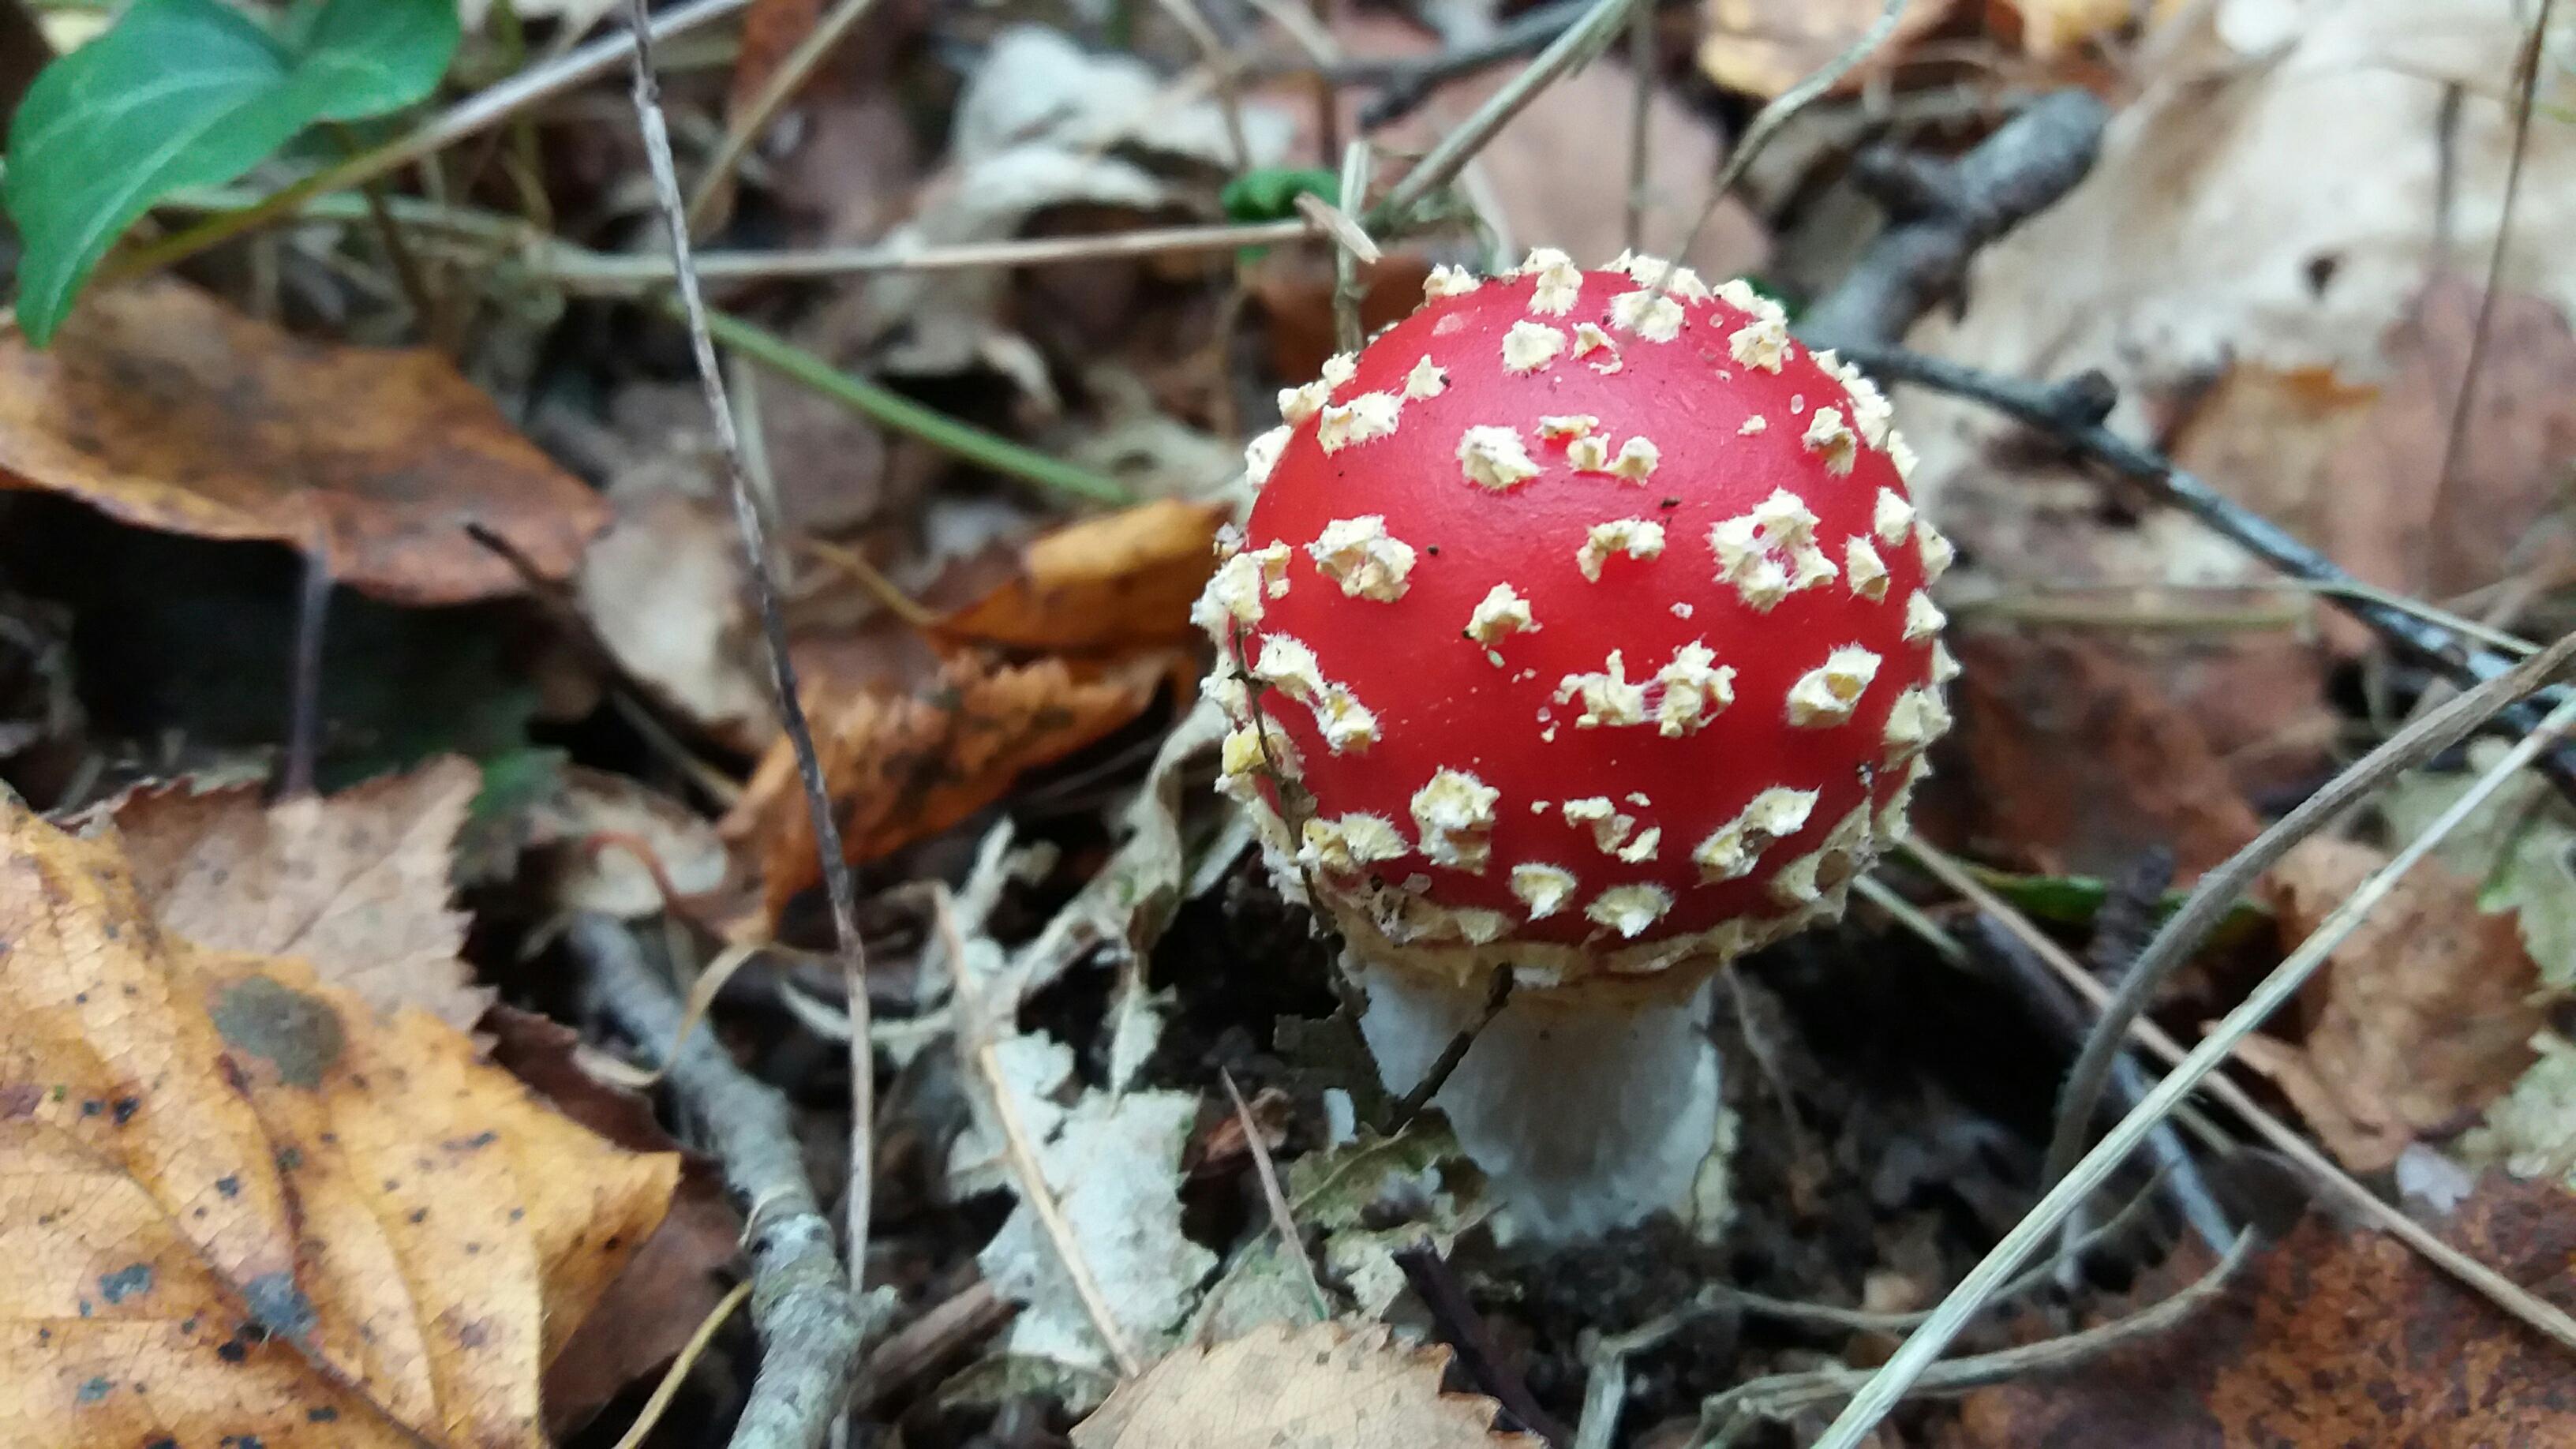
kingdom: Fungi
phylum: Basidiomycota
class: Agaricomycetes
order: Agaricales
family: Amanitaceae
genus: Amanita
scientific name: Amanita muscaria
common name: rød fluesvamp
